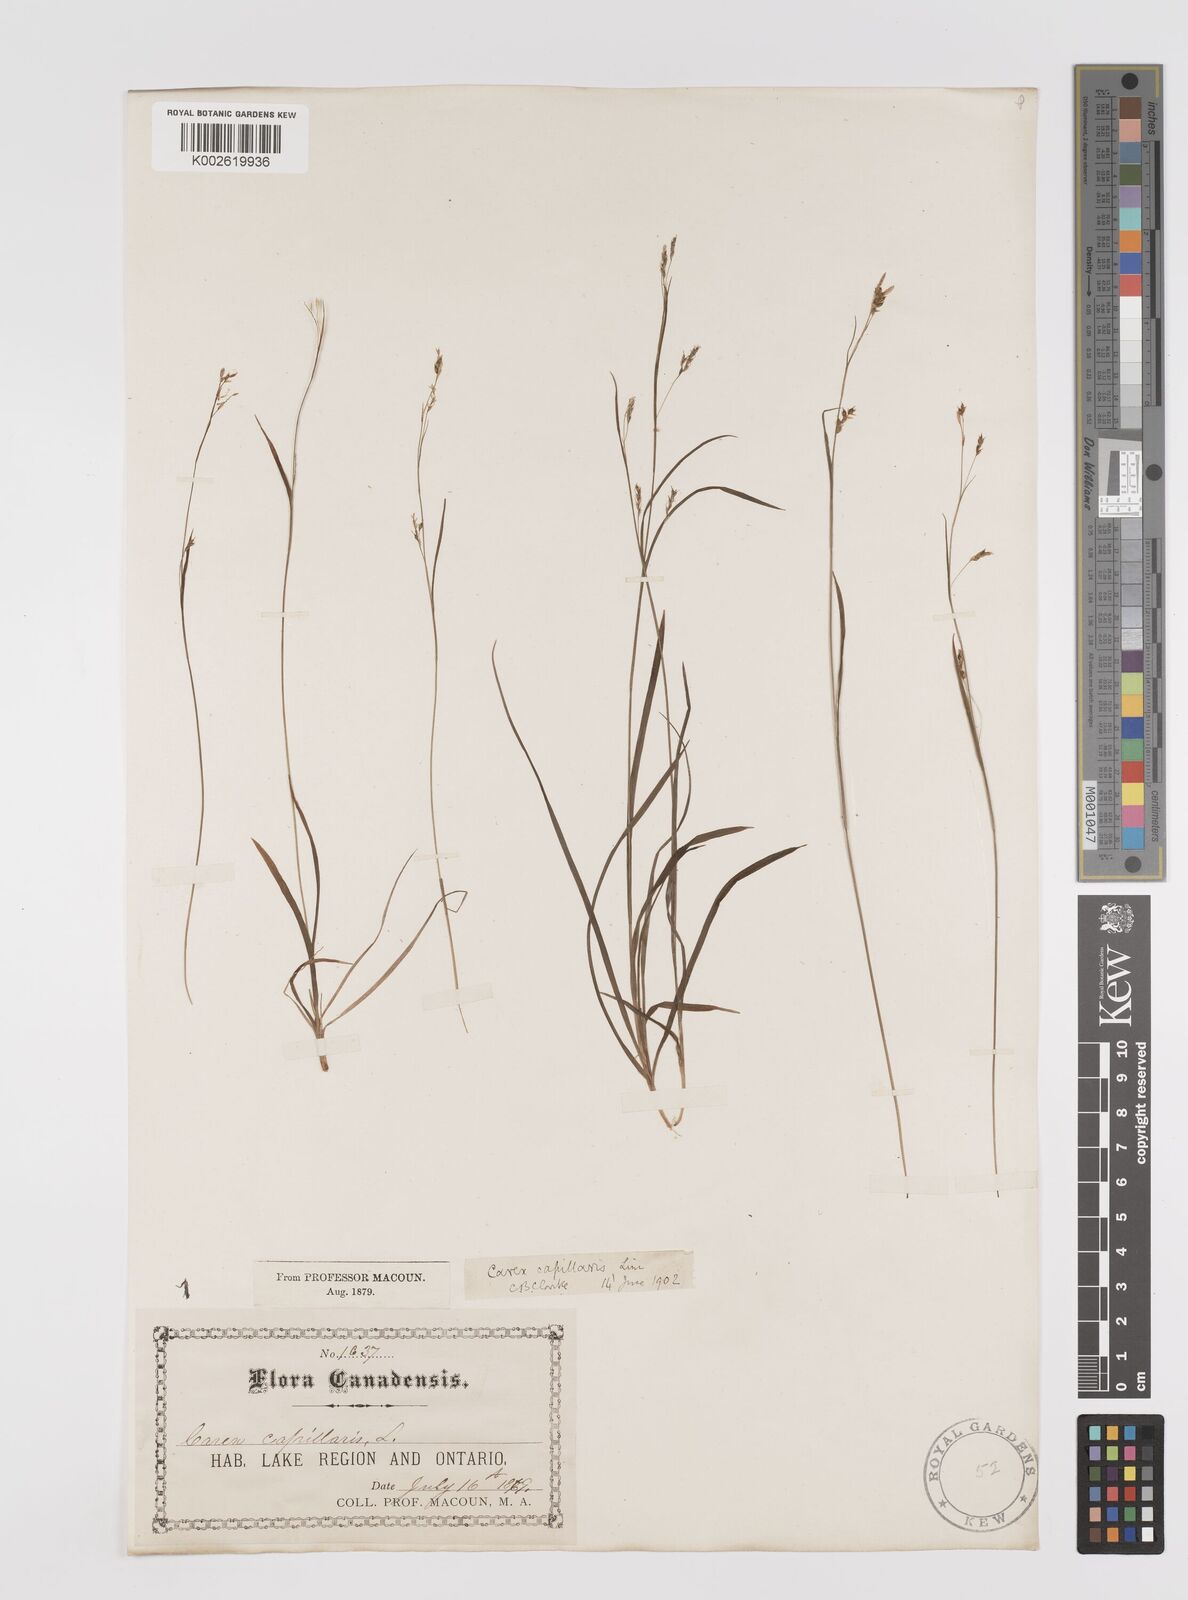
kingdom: Plantae
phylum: Tracheophyta
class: Liliopsida
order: Poales
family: Cyperaceae
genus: Carex
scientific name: Carex capillaris
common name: Hair sedge
